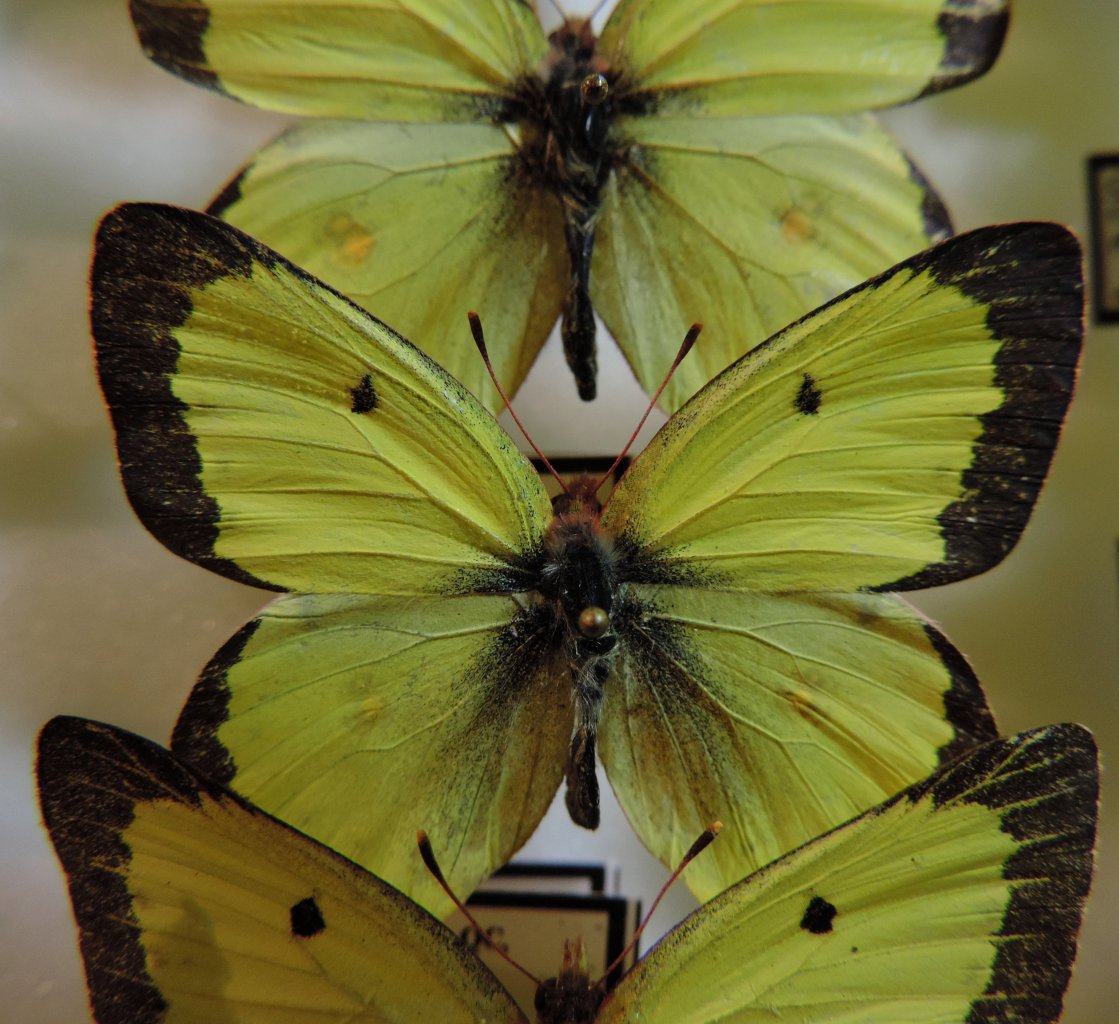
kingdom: Animalia
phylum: Arthropoda
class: Insecta
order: Lepidoptera
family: Pieridae
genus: Colias
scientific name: Colias philodice
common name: Clouded Sulphur
